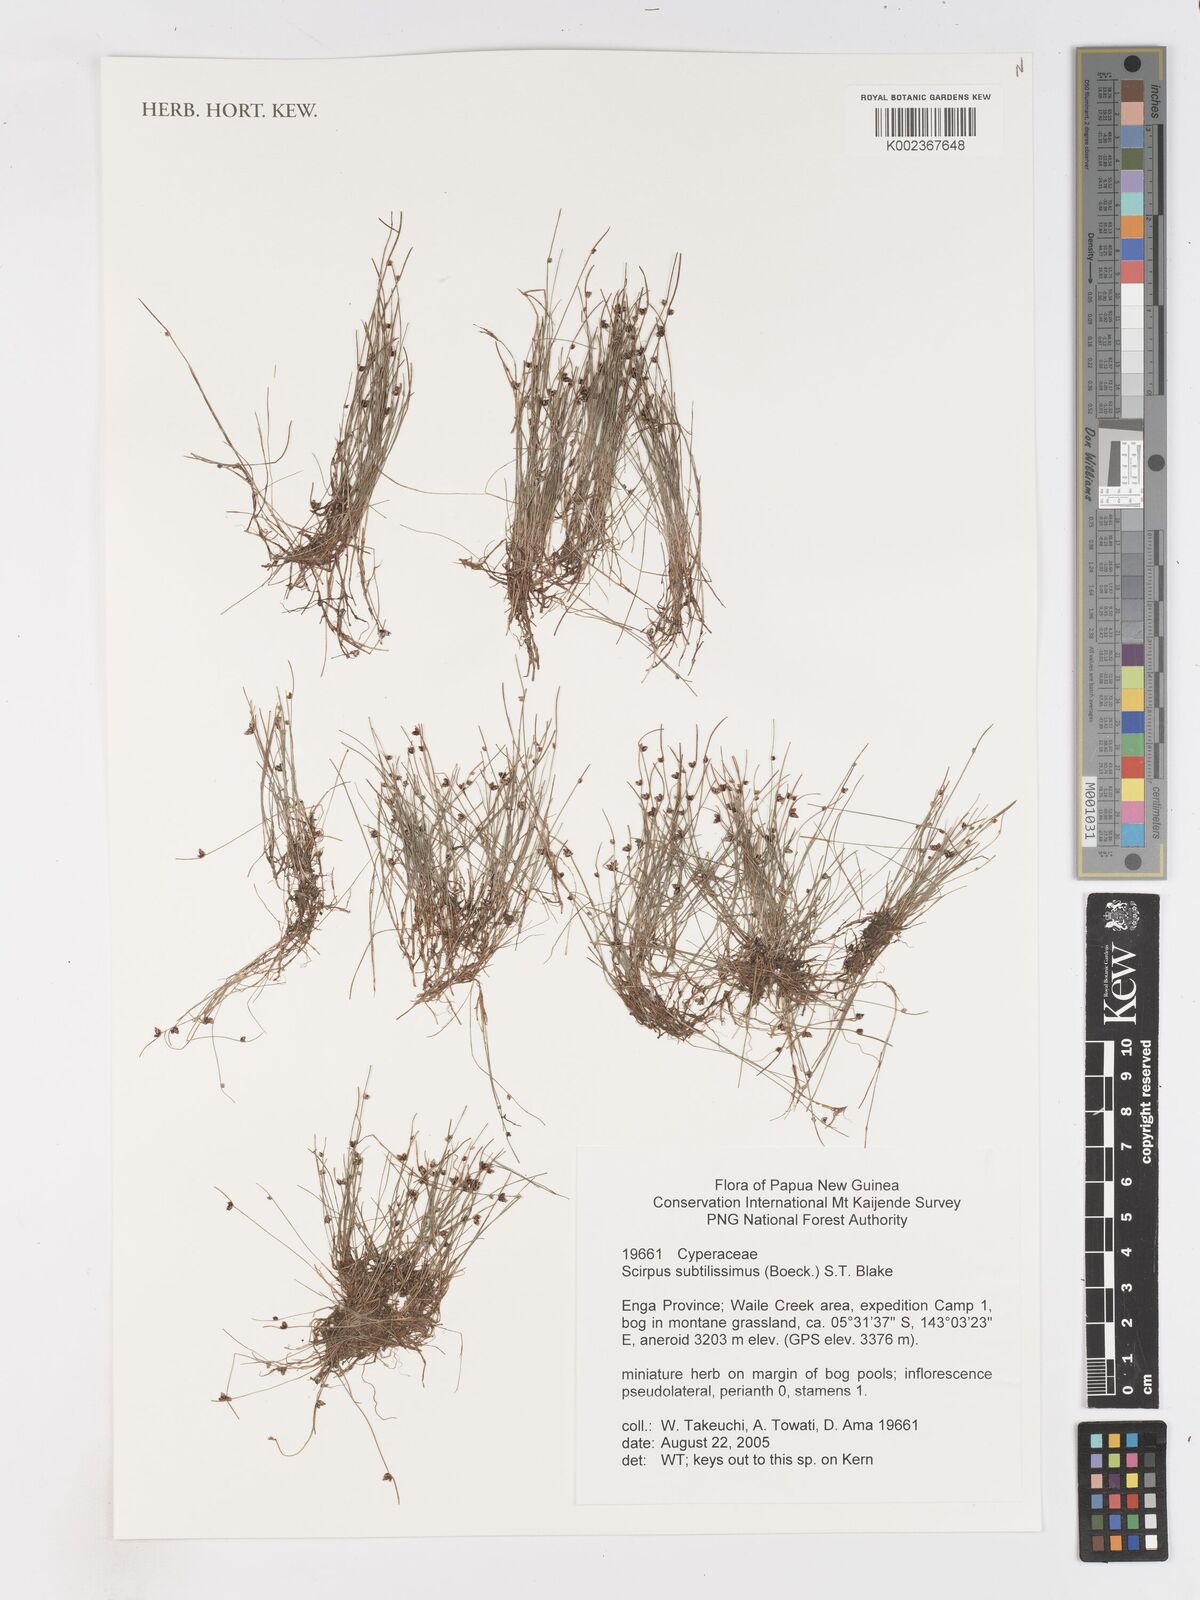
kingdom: Plantae
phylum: Tracheophyta
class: Liliopsida
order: Poales
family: Cyperaceae
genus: Isolepis
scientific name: Isolepis subtilissima
